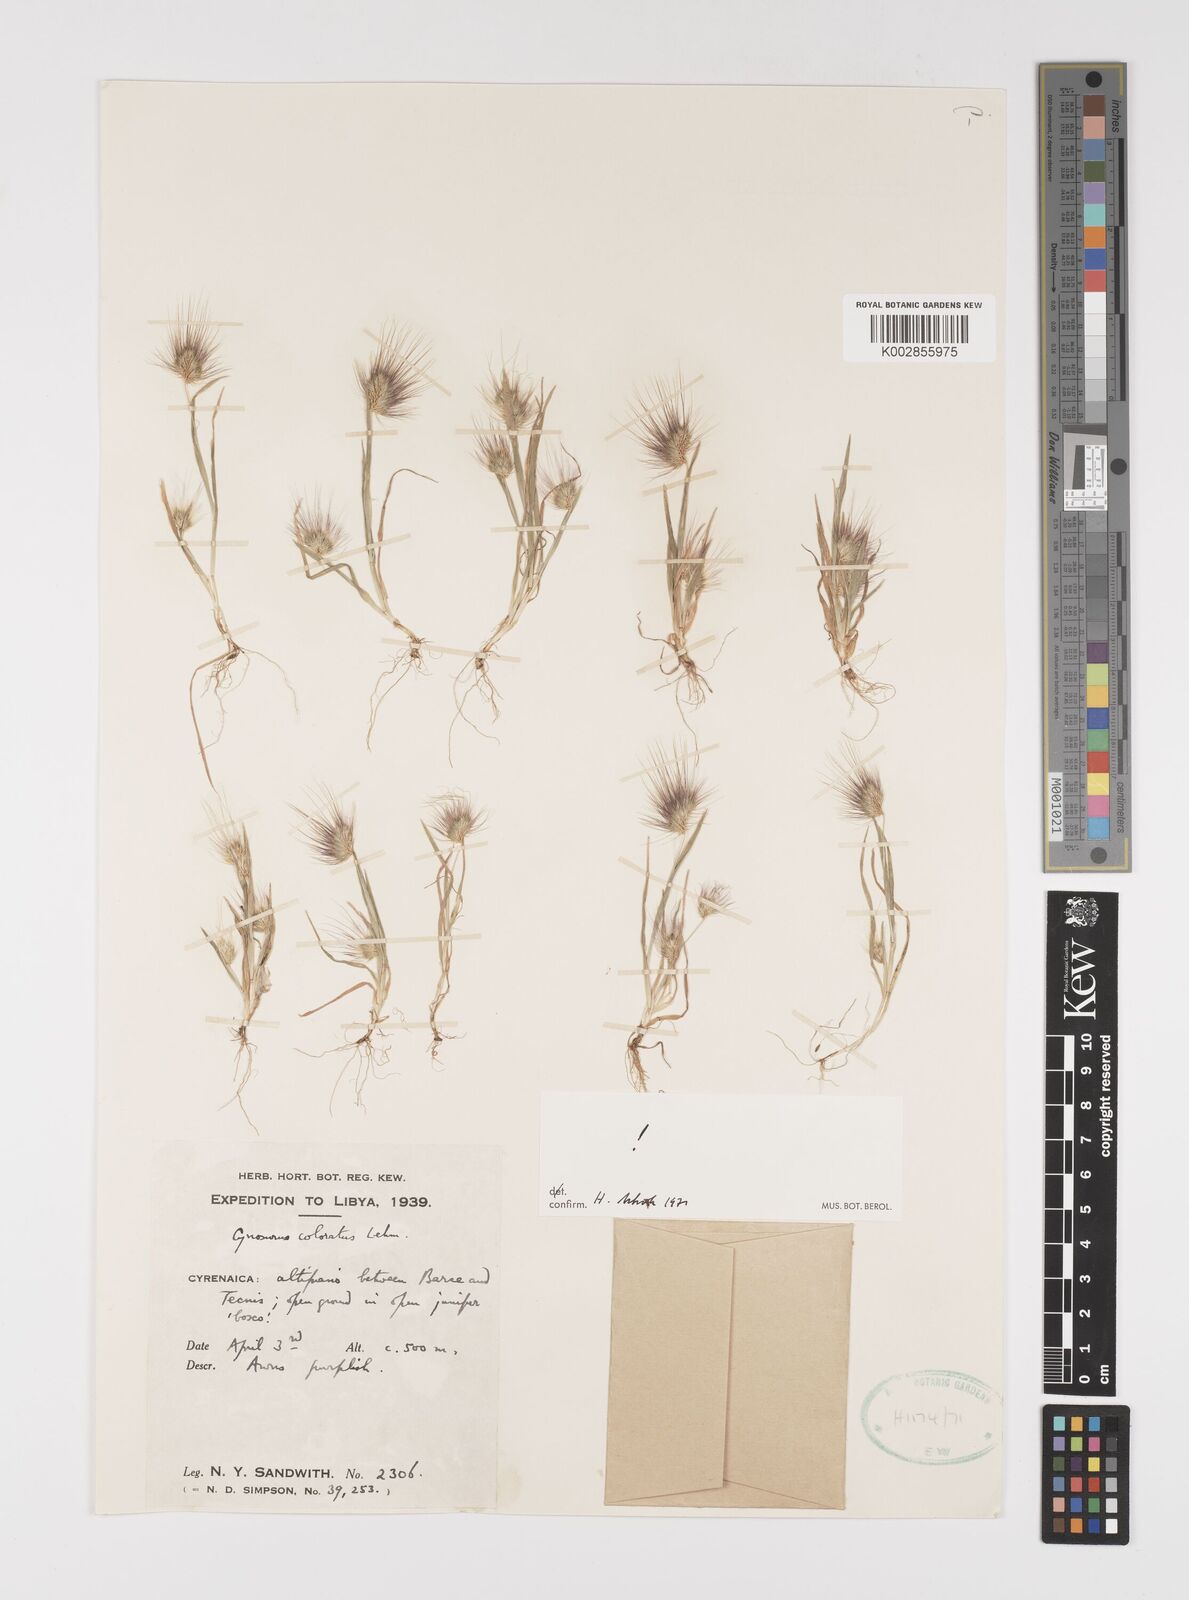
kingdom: Plantae
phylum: Tracheophyta
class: Liliopsida
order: Poales
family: Poaceae
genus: Cynosurus
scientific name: Cynosurus coloratus
